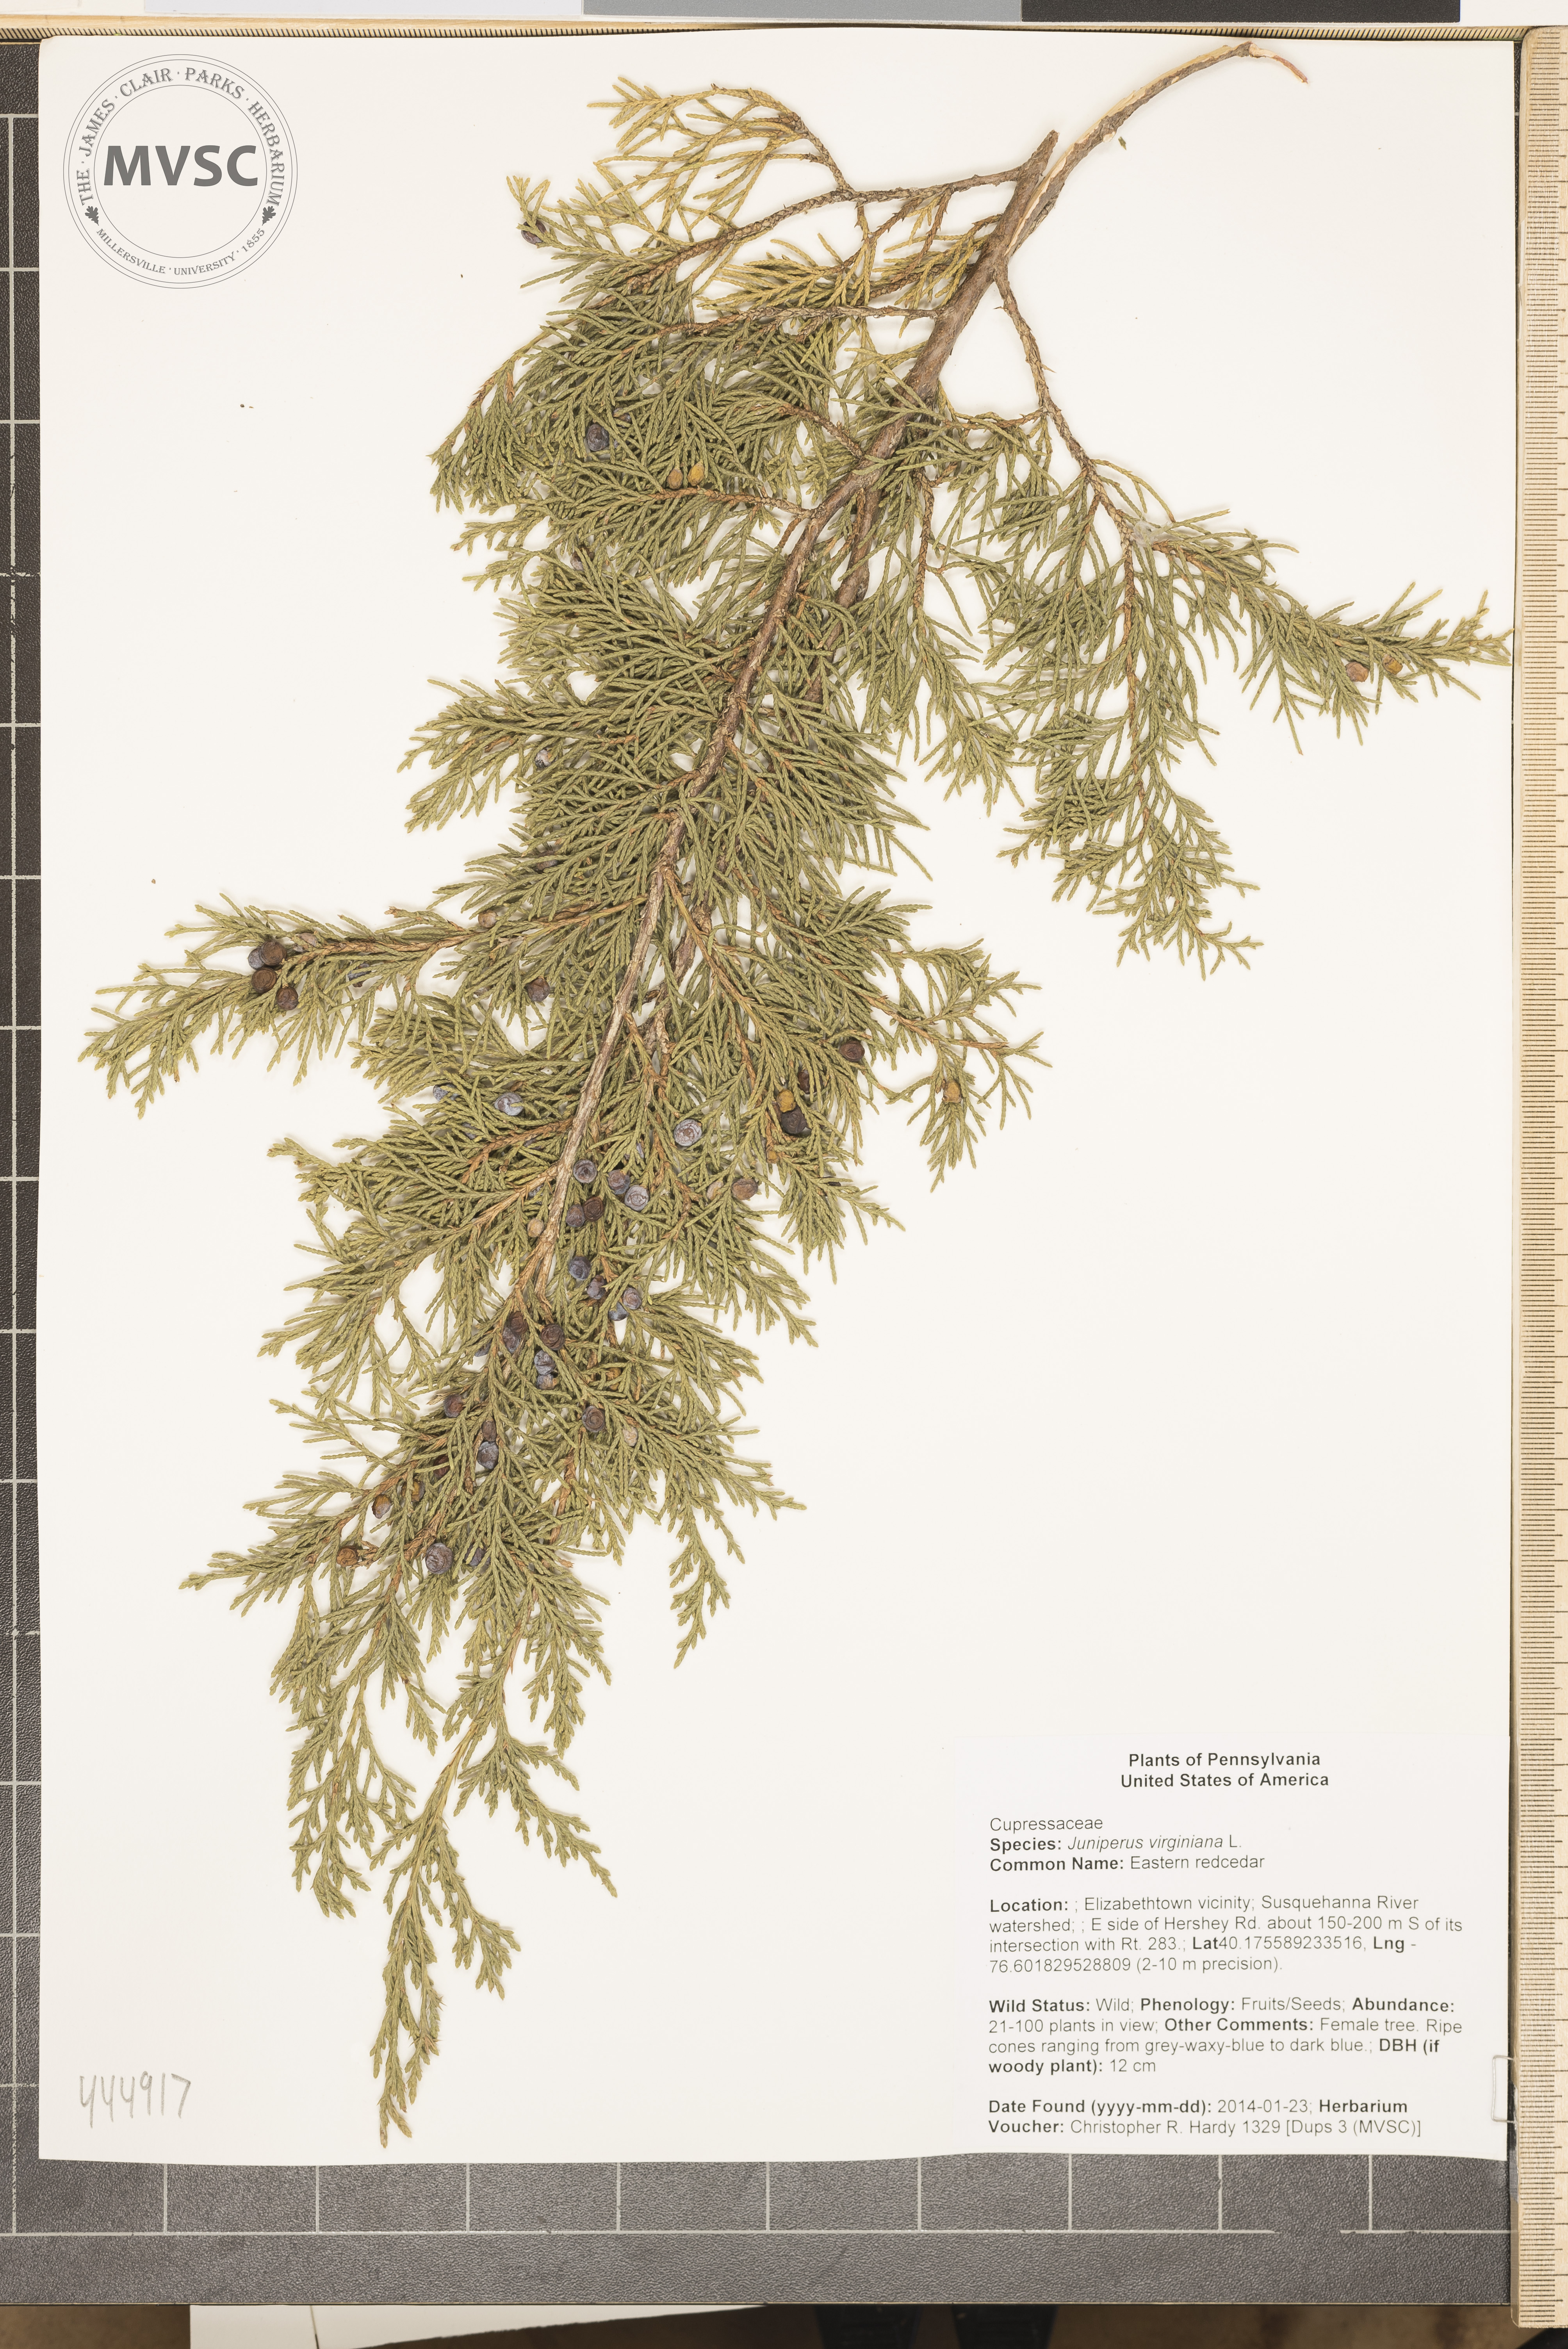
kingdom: Plantae
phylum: Tracheophyta
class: Pinopsida
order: Pinales
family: Cupressaceae
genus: Juniperus
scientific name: Juniperus virginiana
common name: Eastern redcedar
